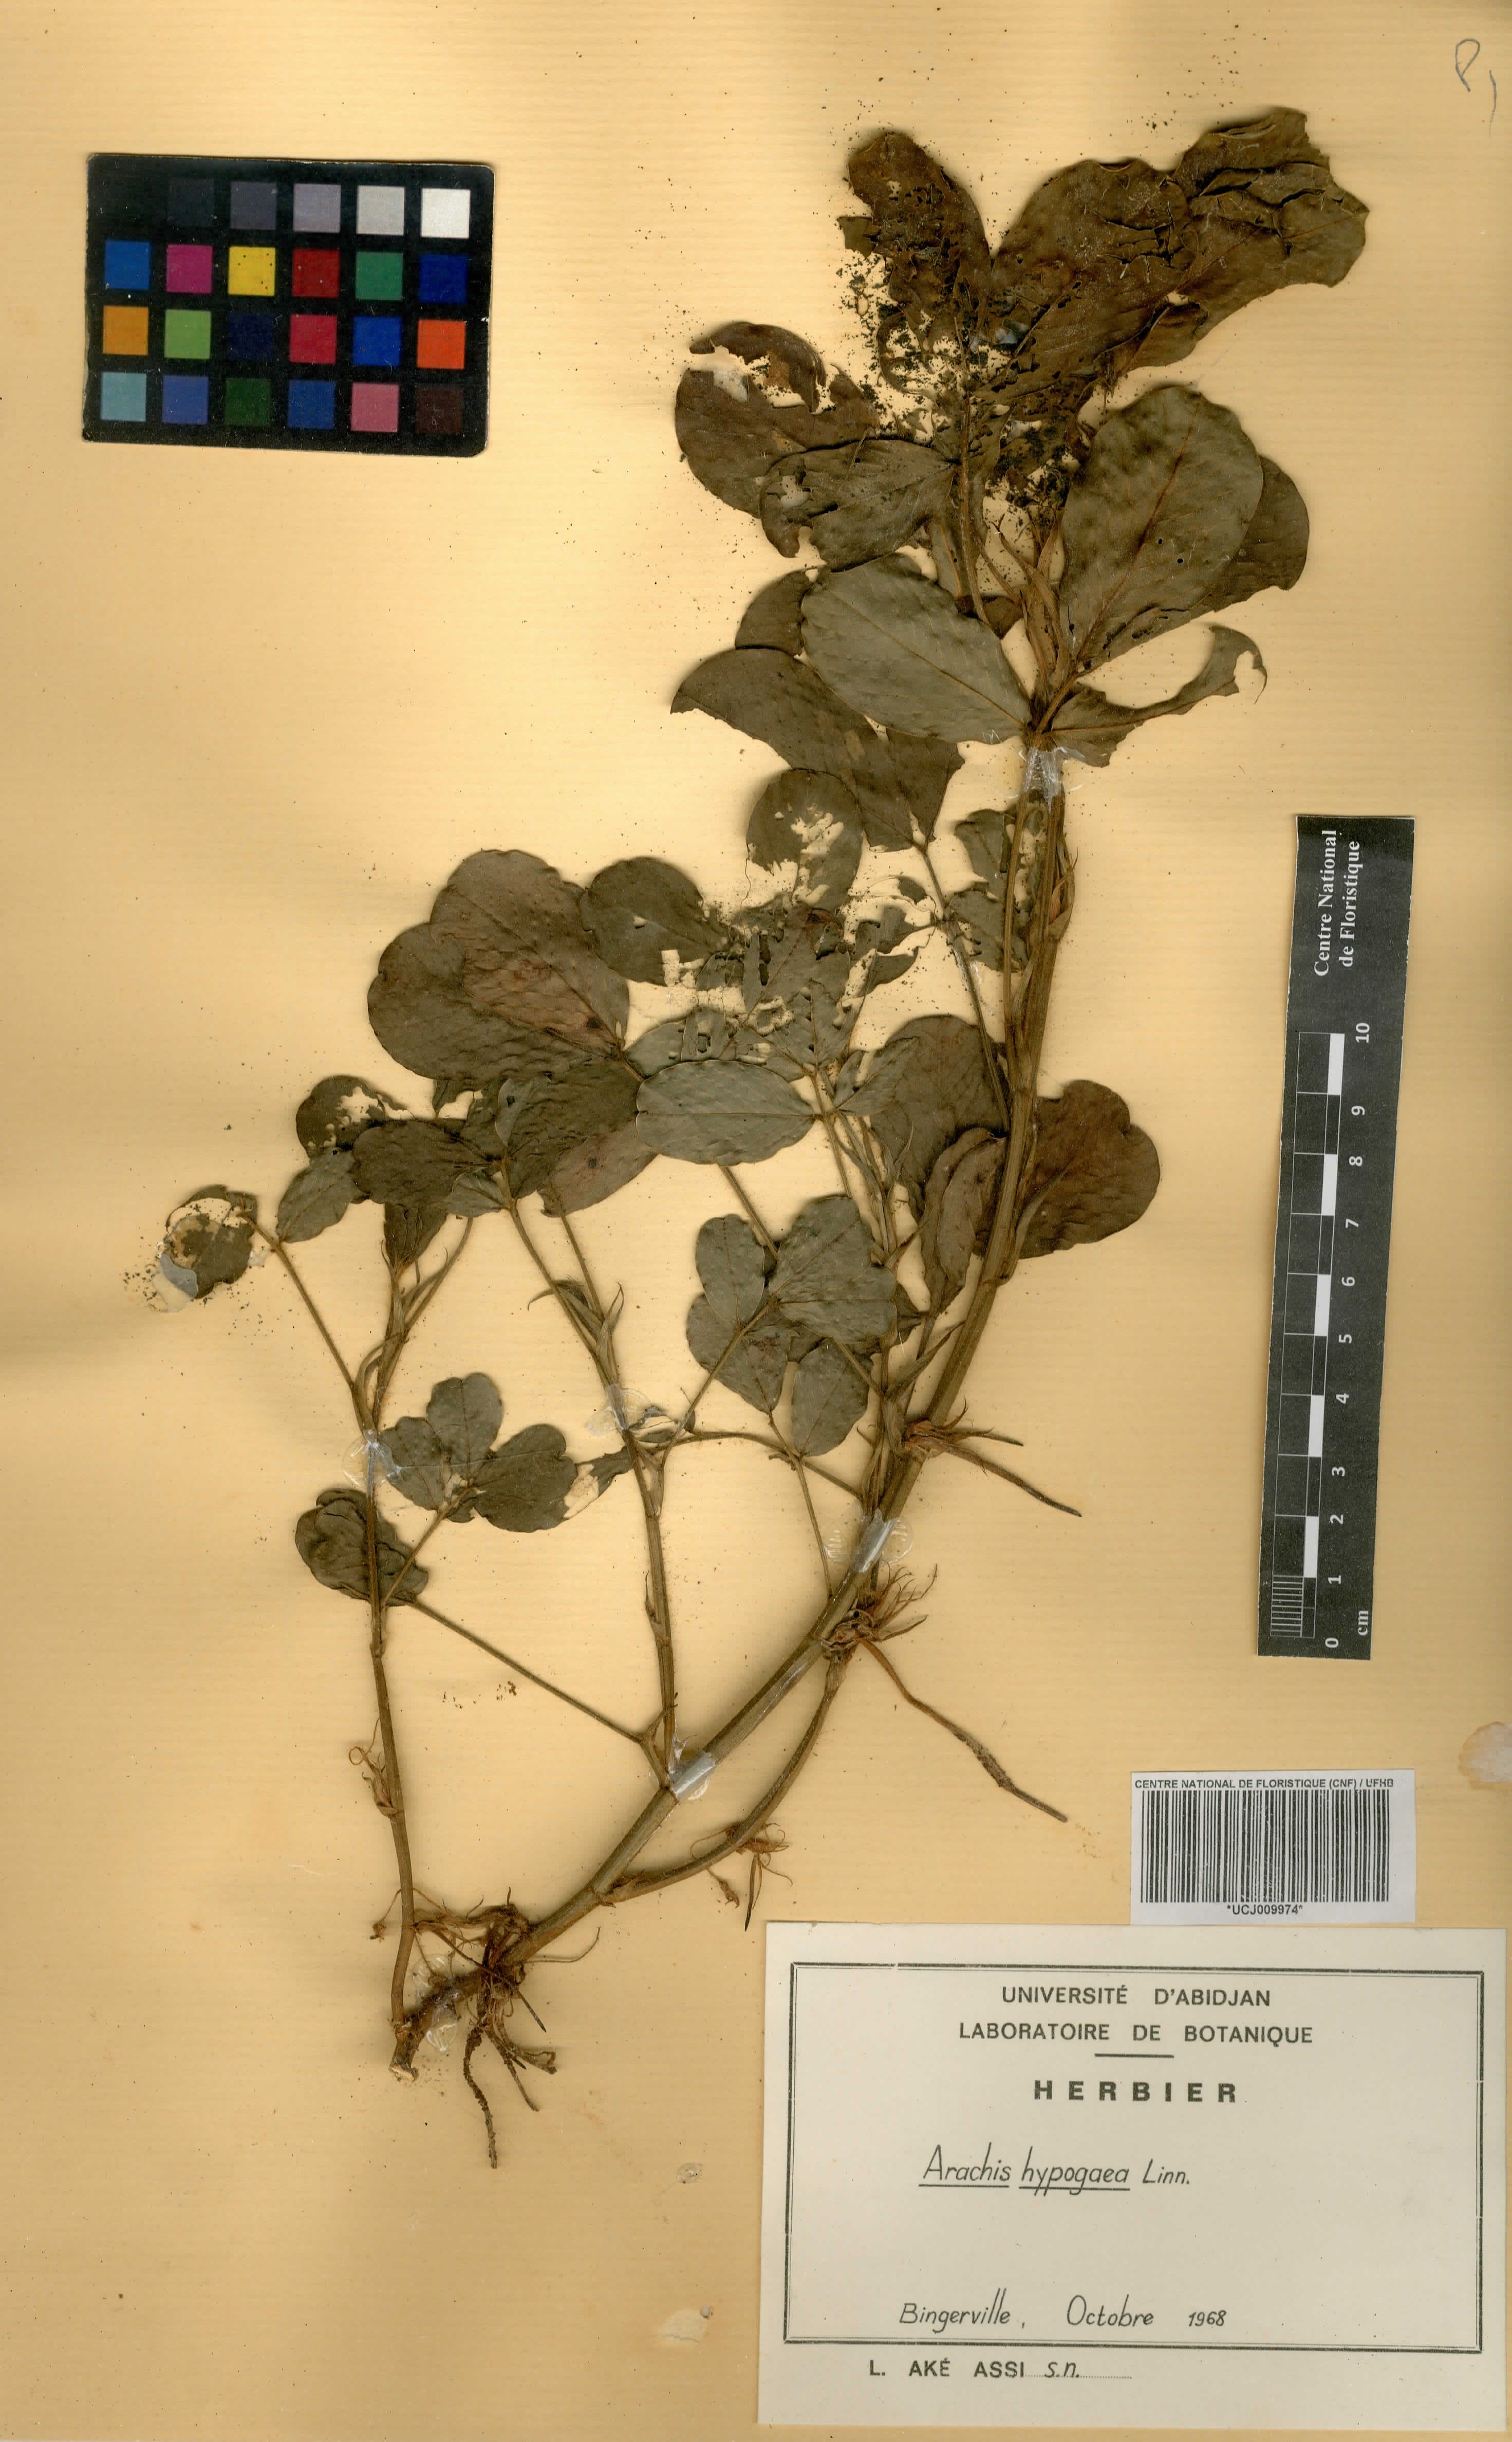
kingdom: Plantae
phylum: Tracheophyta
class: Magnoliopsida
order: Fabales
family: Fabaceae
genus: Arachis
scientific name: Arachis hypogaea
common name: Peanut
